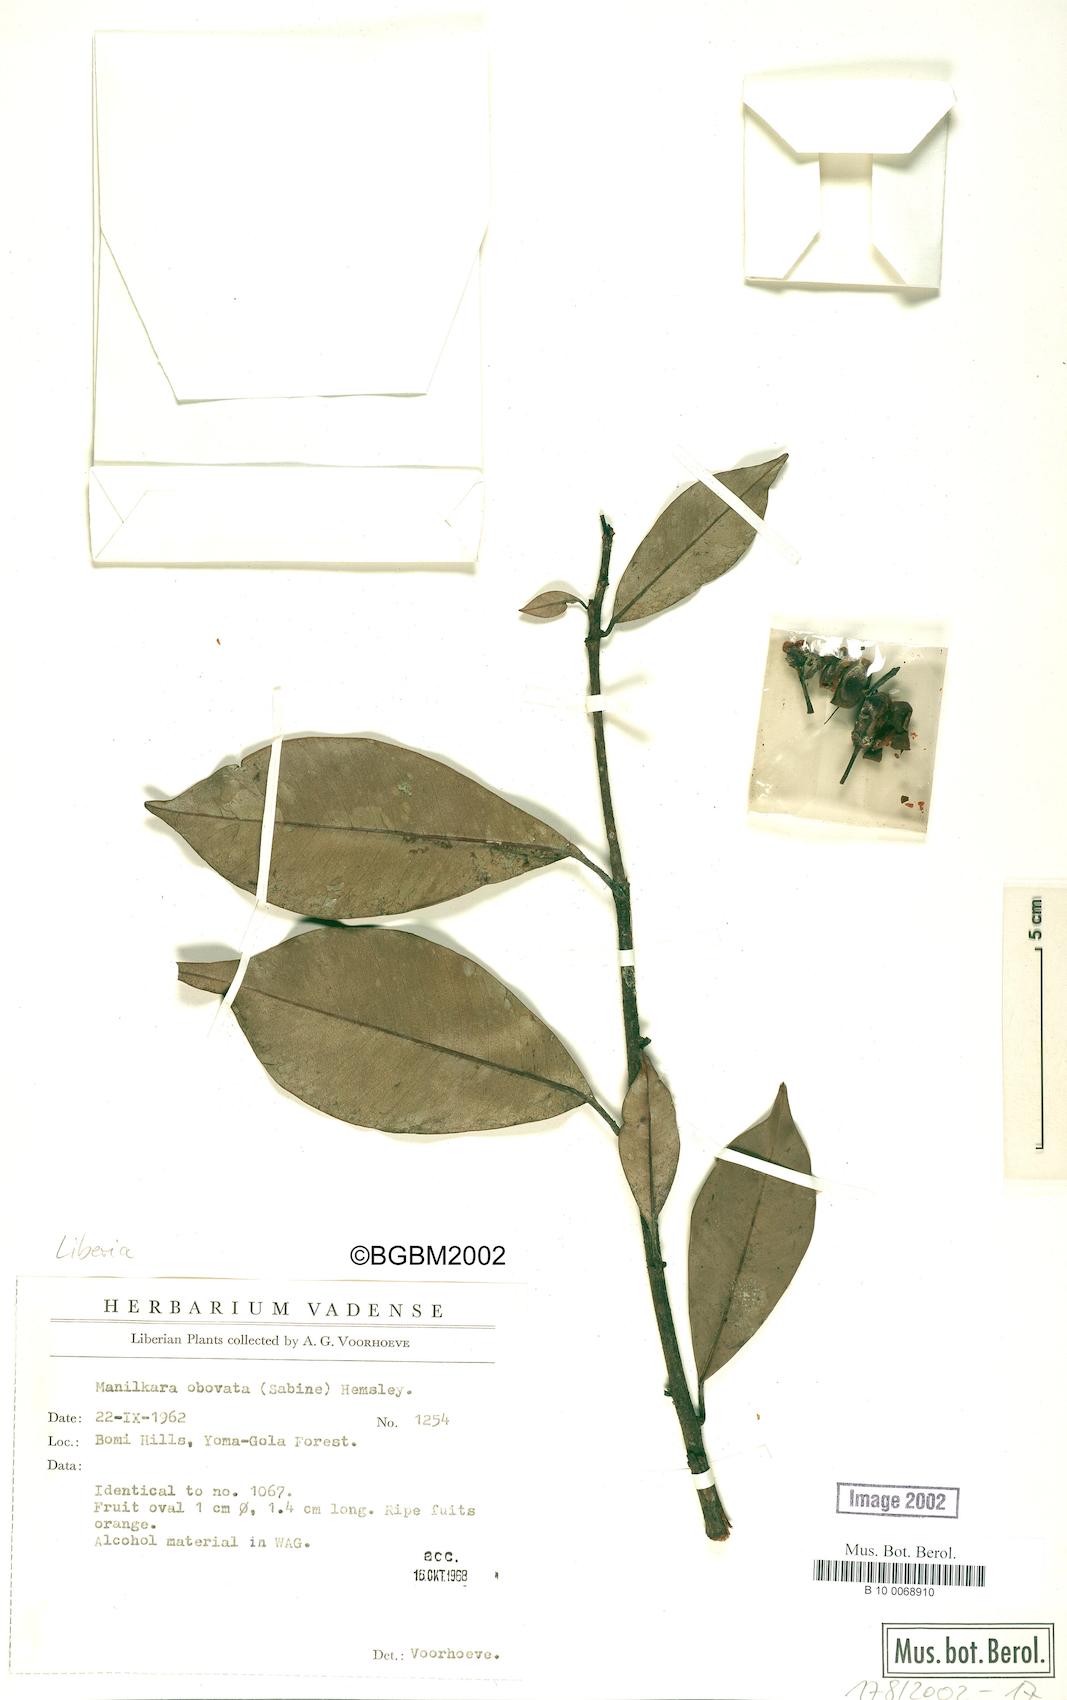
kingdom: Plantae
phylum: Tracheophyta
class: Magnoliopsida
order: Ericales
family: Sapotaceae
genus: Manilkara
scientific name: Manilkara obovata
